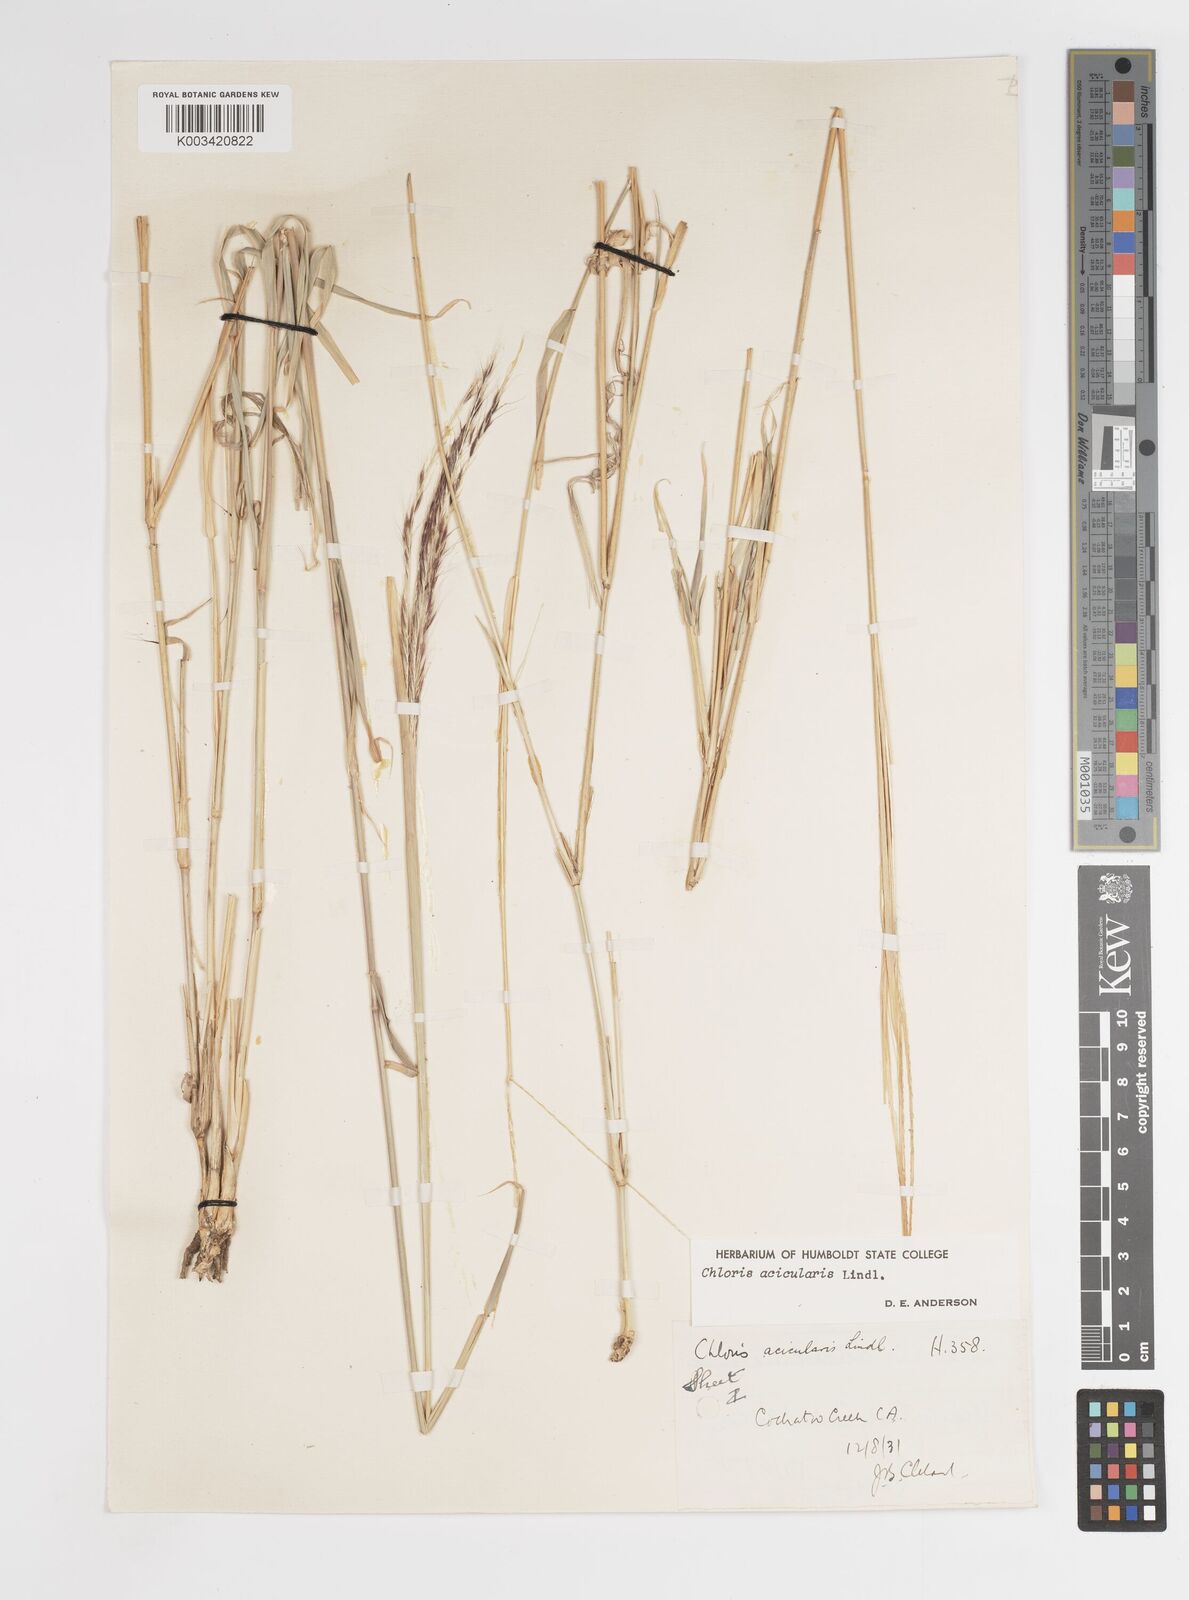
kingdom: Plantae
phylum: Tracheophyta
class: Liliopsida
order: Poales
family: Poaceae
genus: Enteropogon
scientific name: Enteropogon acicularis
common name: Curly windmill grass
